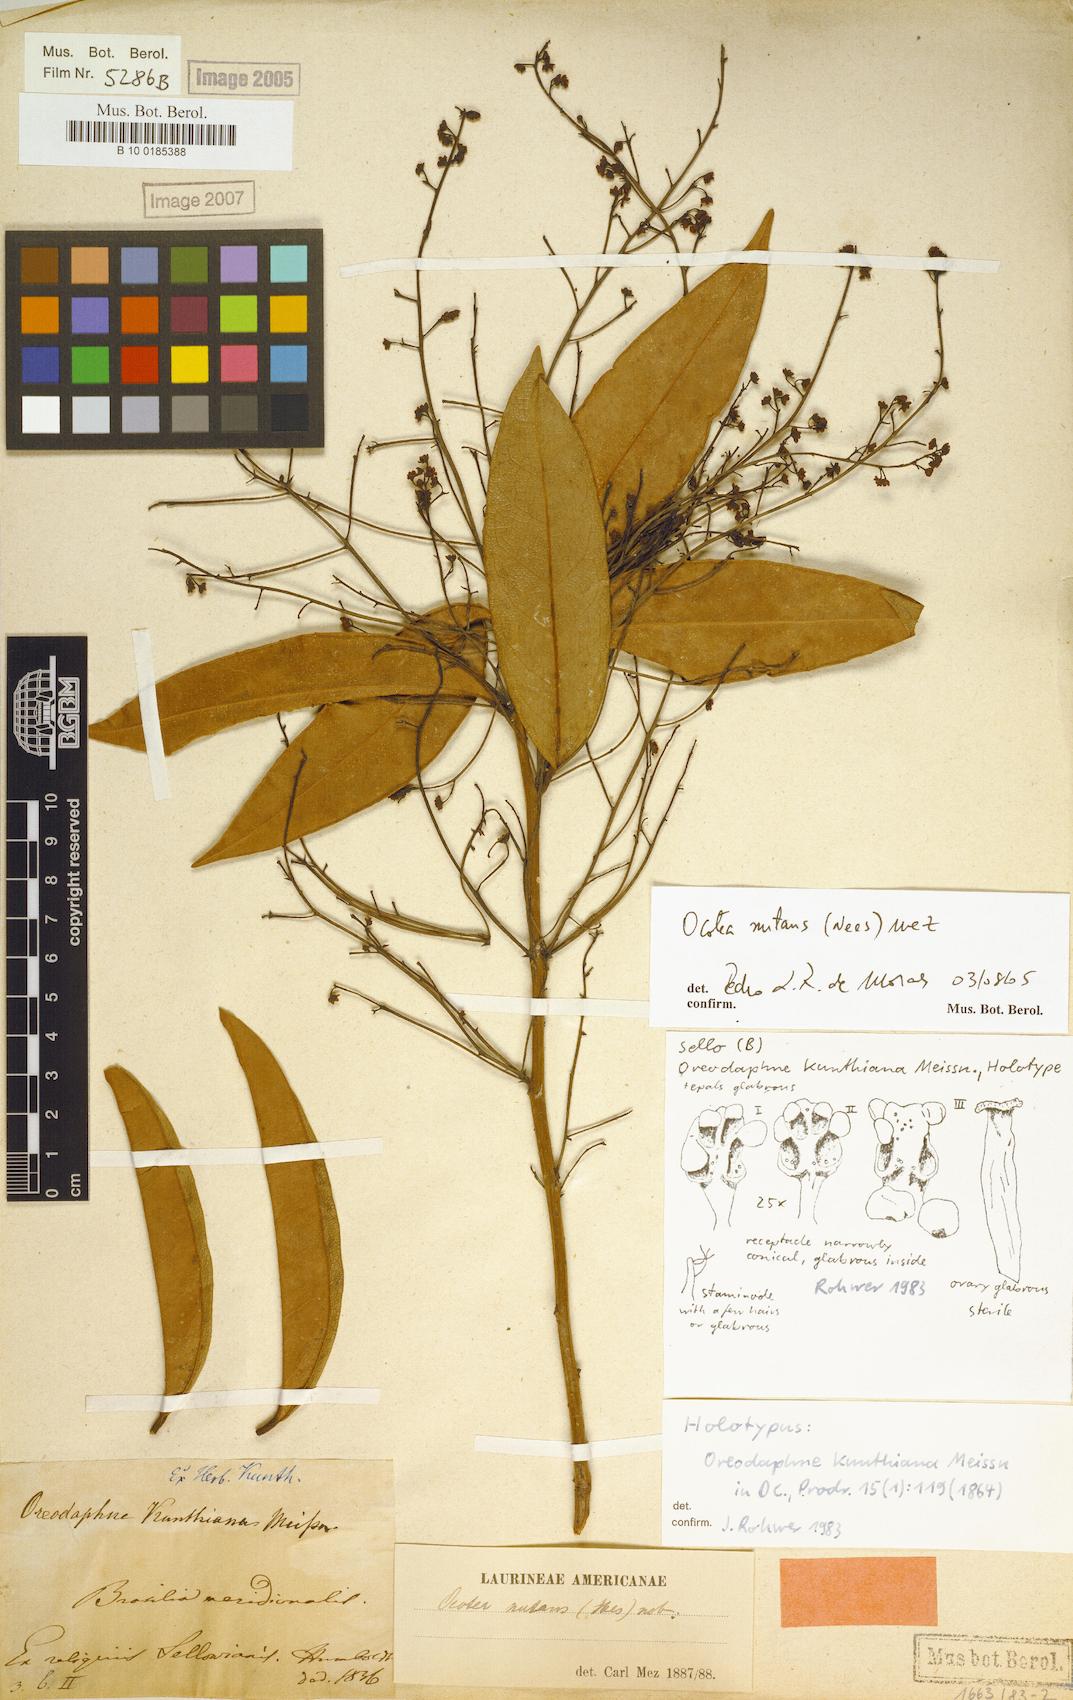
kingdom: Plantae
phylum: Tracheophyta
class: Magnoliopsida
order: Laurales
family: Lauraceae
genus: Mespilodaphne
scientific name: Mespilodaphne nutans
